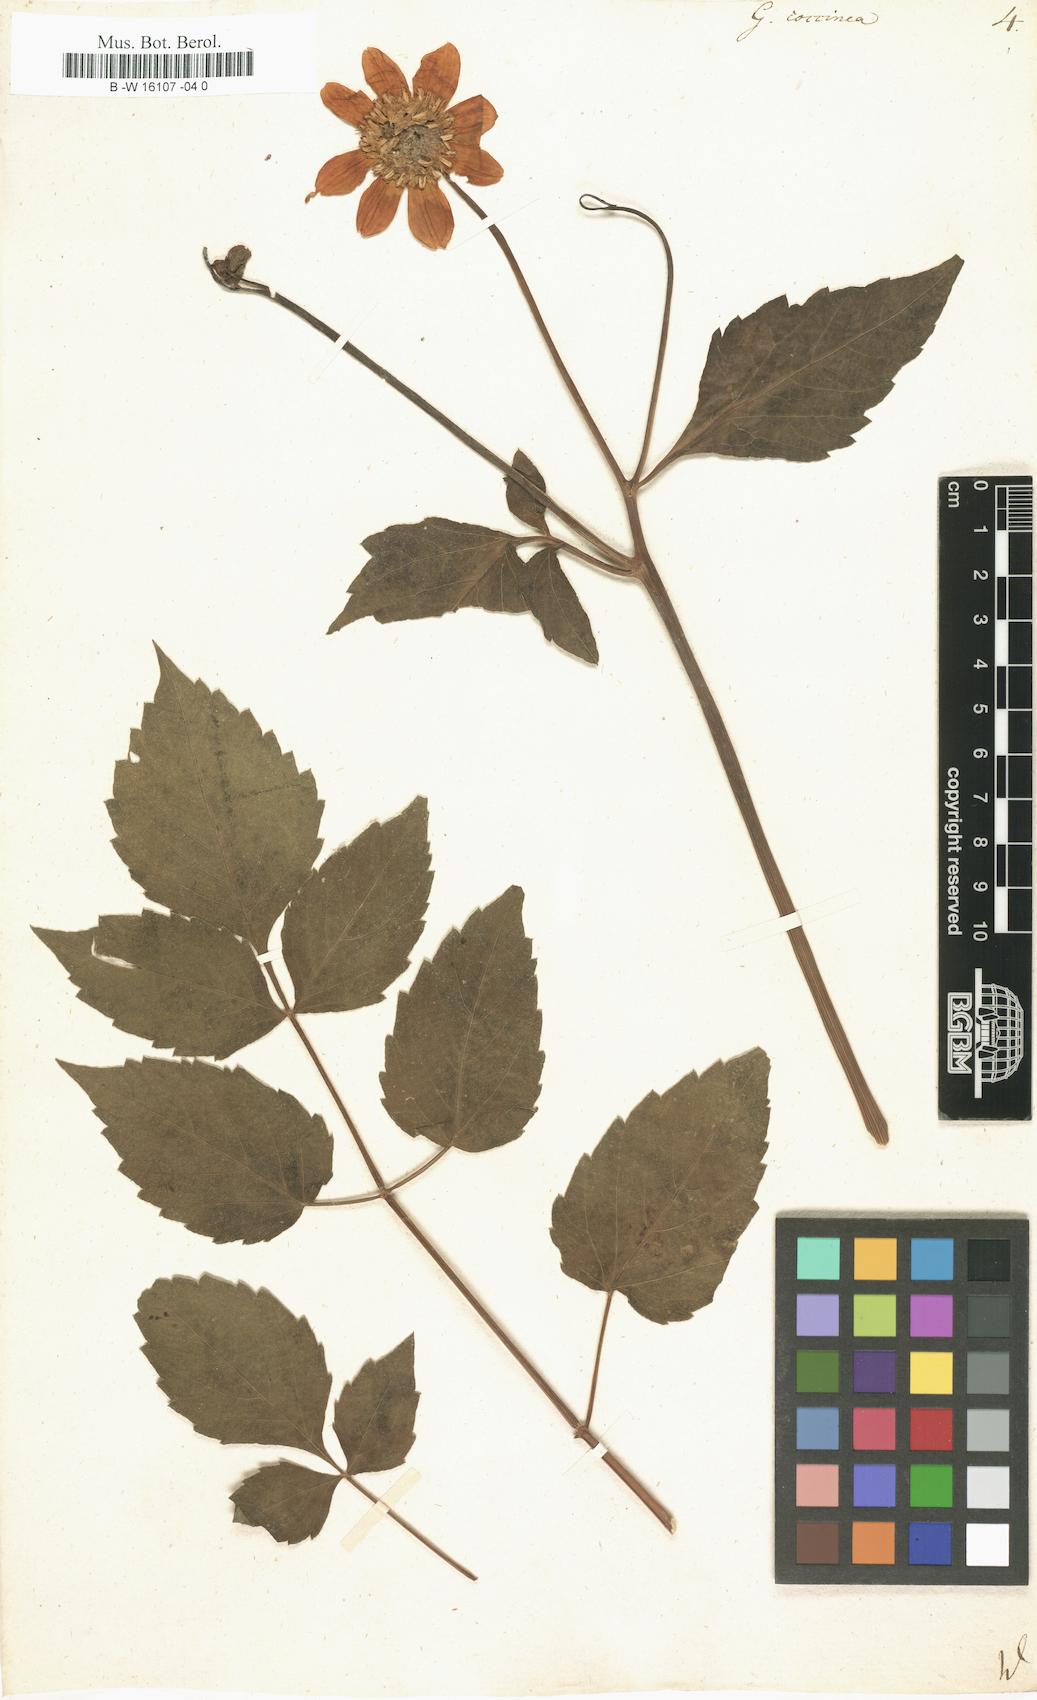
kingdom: Plantae
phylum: Tracheophyta
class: Magnoliopsida
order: Asterales
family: Asteraceae
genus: Dahlia
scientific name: Dahlia Georgina coccinea
